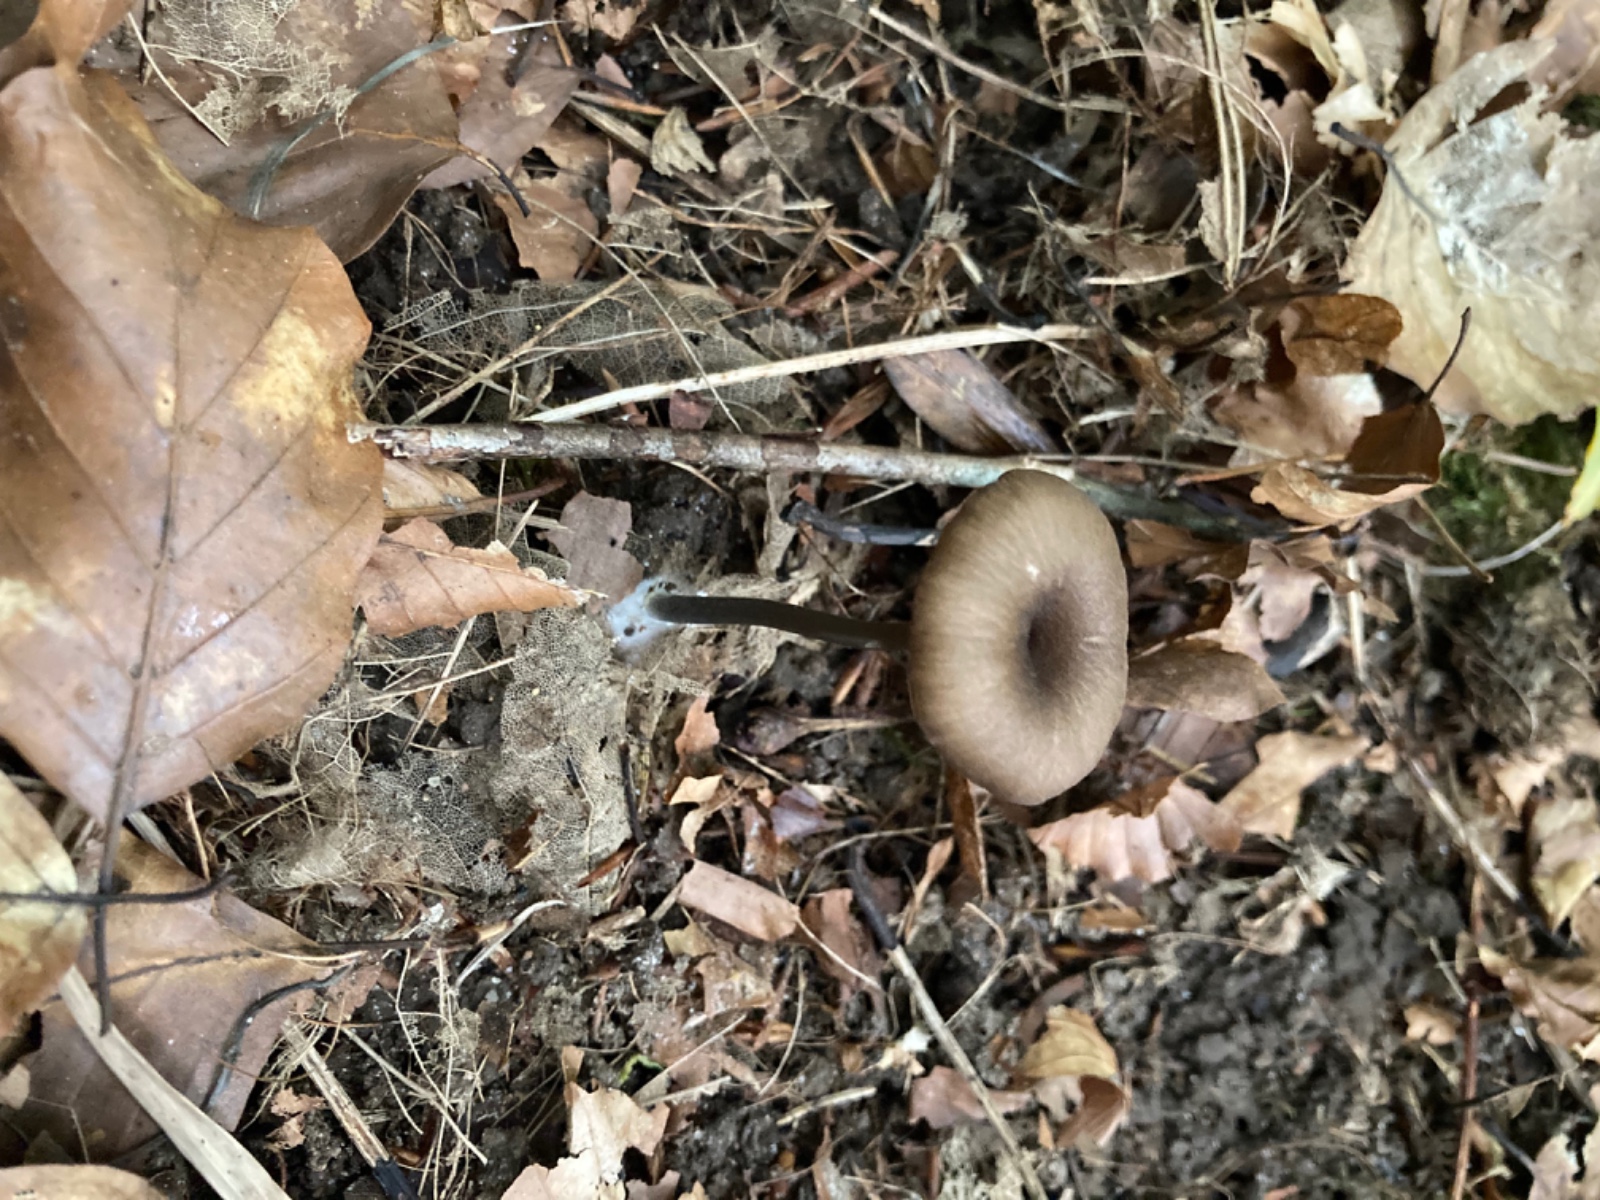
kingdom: Fungi
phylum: Basidiomycota
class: Agaricomycetes
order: Agaricales
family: Entolomataceae
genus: Entoloma
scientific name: Entoloma
